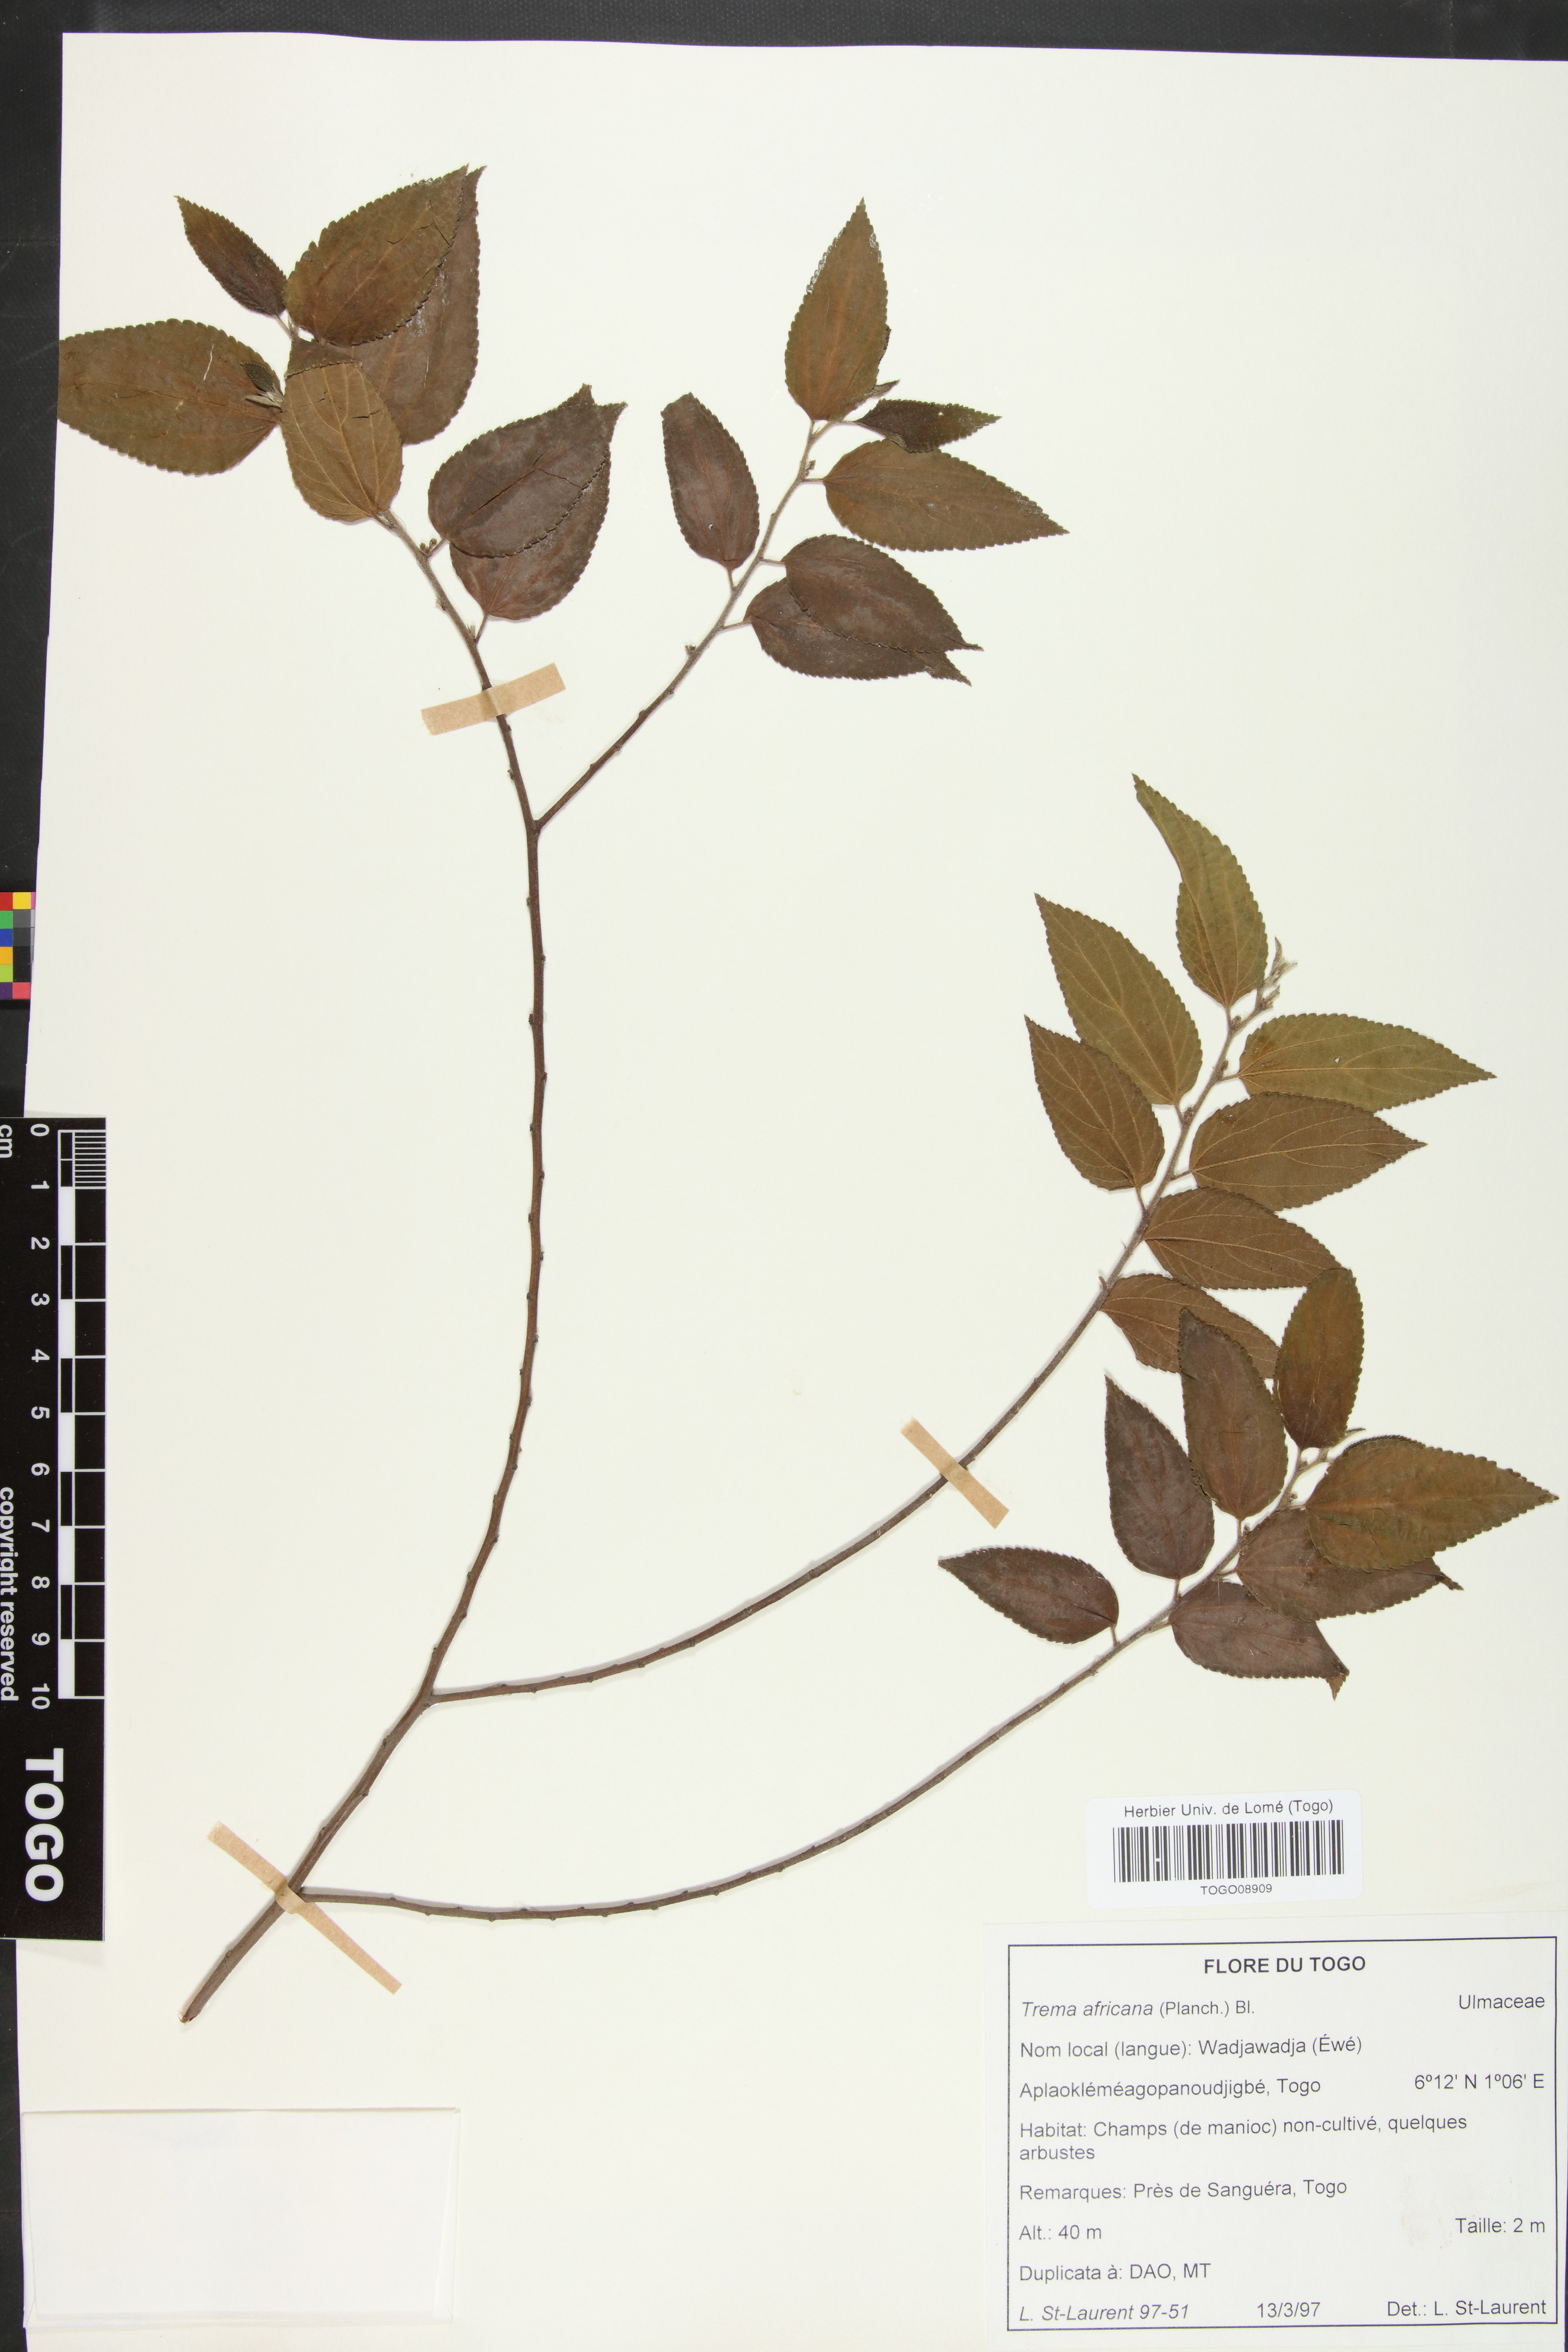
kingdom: Plantae
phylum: Tracheophyta
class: Magnoliopsida
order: Rosales
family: Cannabaceae
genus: Trema
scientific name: Trema orientale
